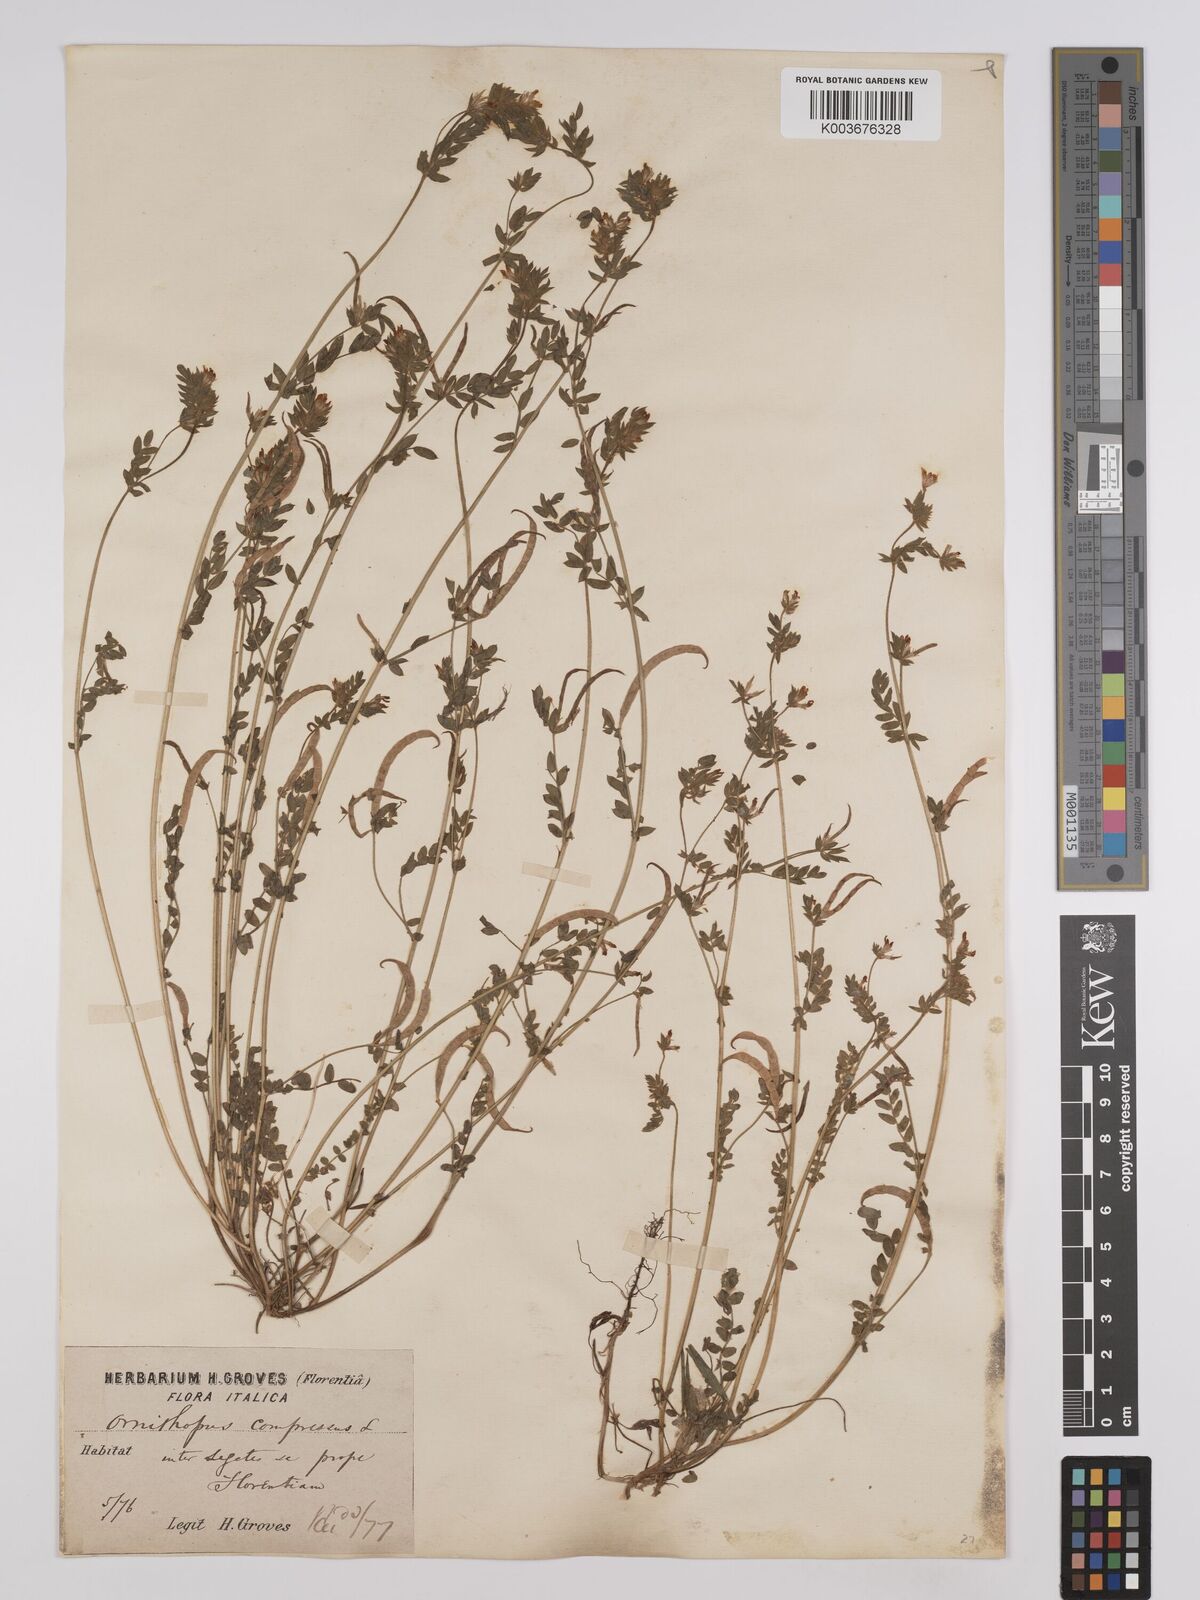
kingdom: Plantae
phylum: Tracheophyta
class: Magnoliopsida
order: Fabales
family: Fabaceae
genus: Ornithopus
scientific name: Ornithopus compressus
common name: Yellow serradella
